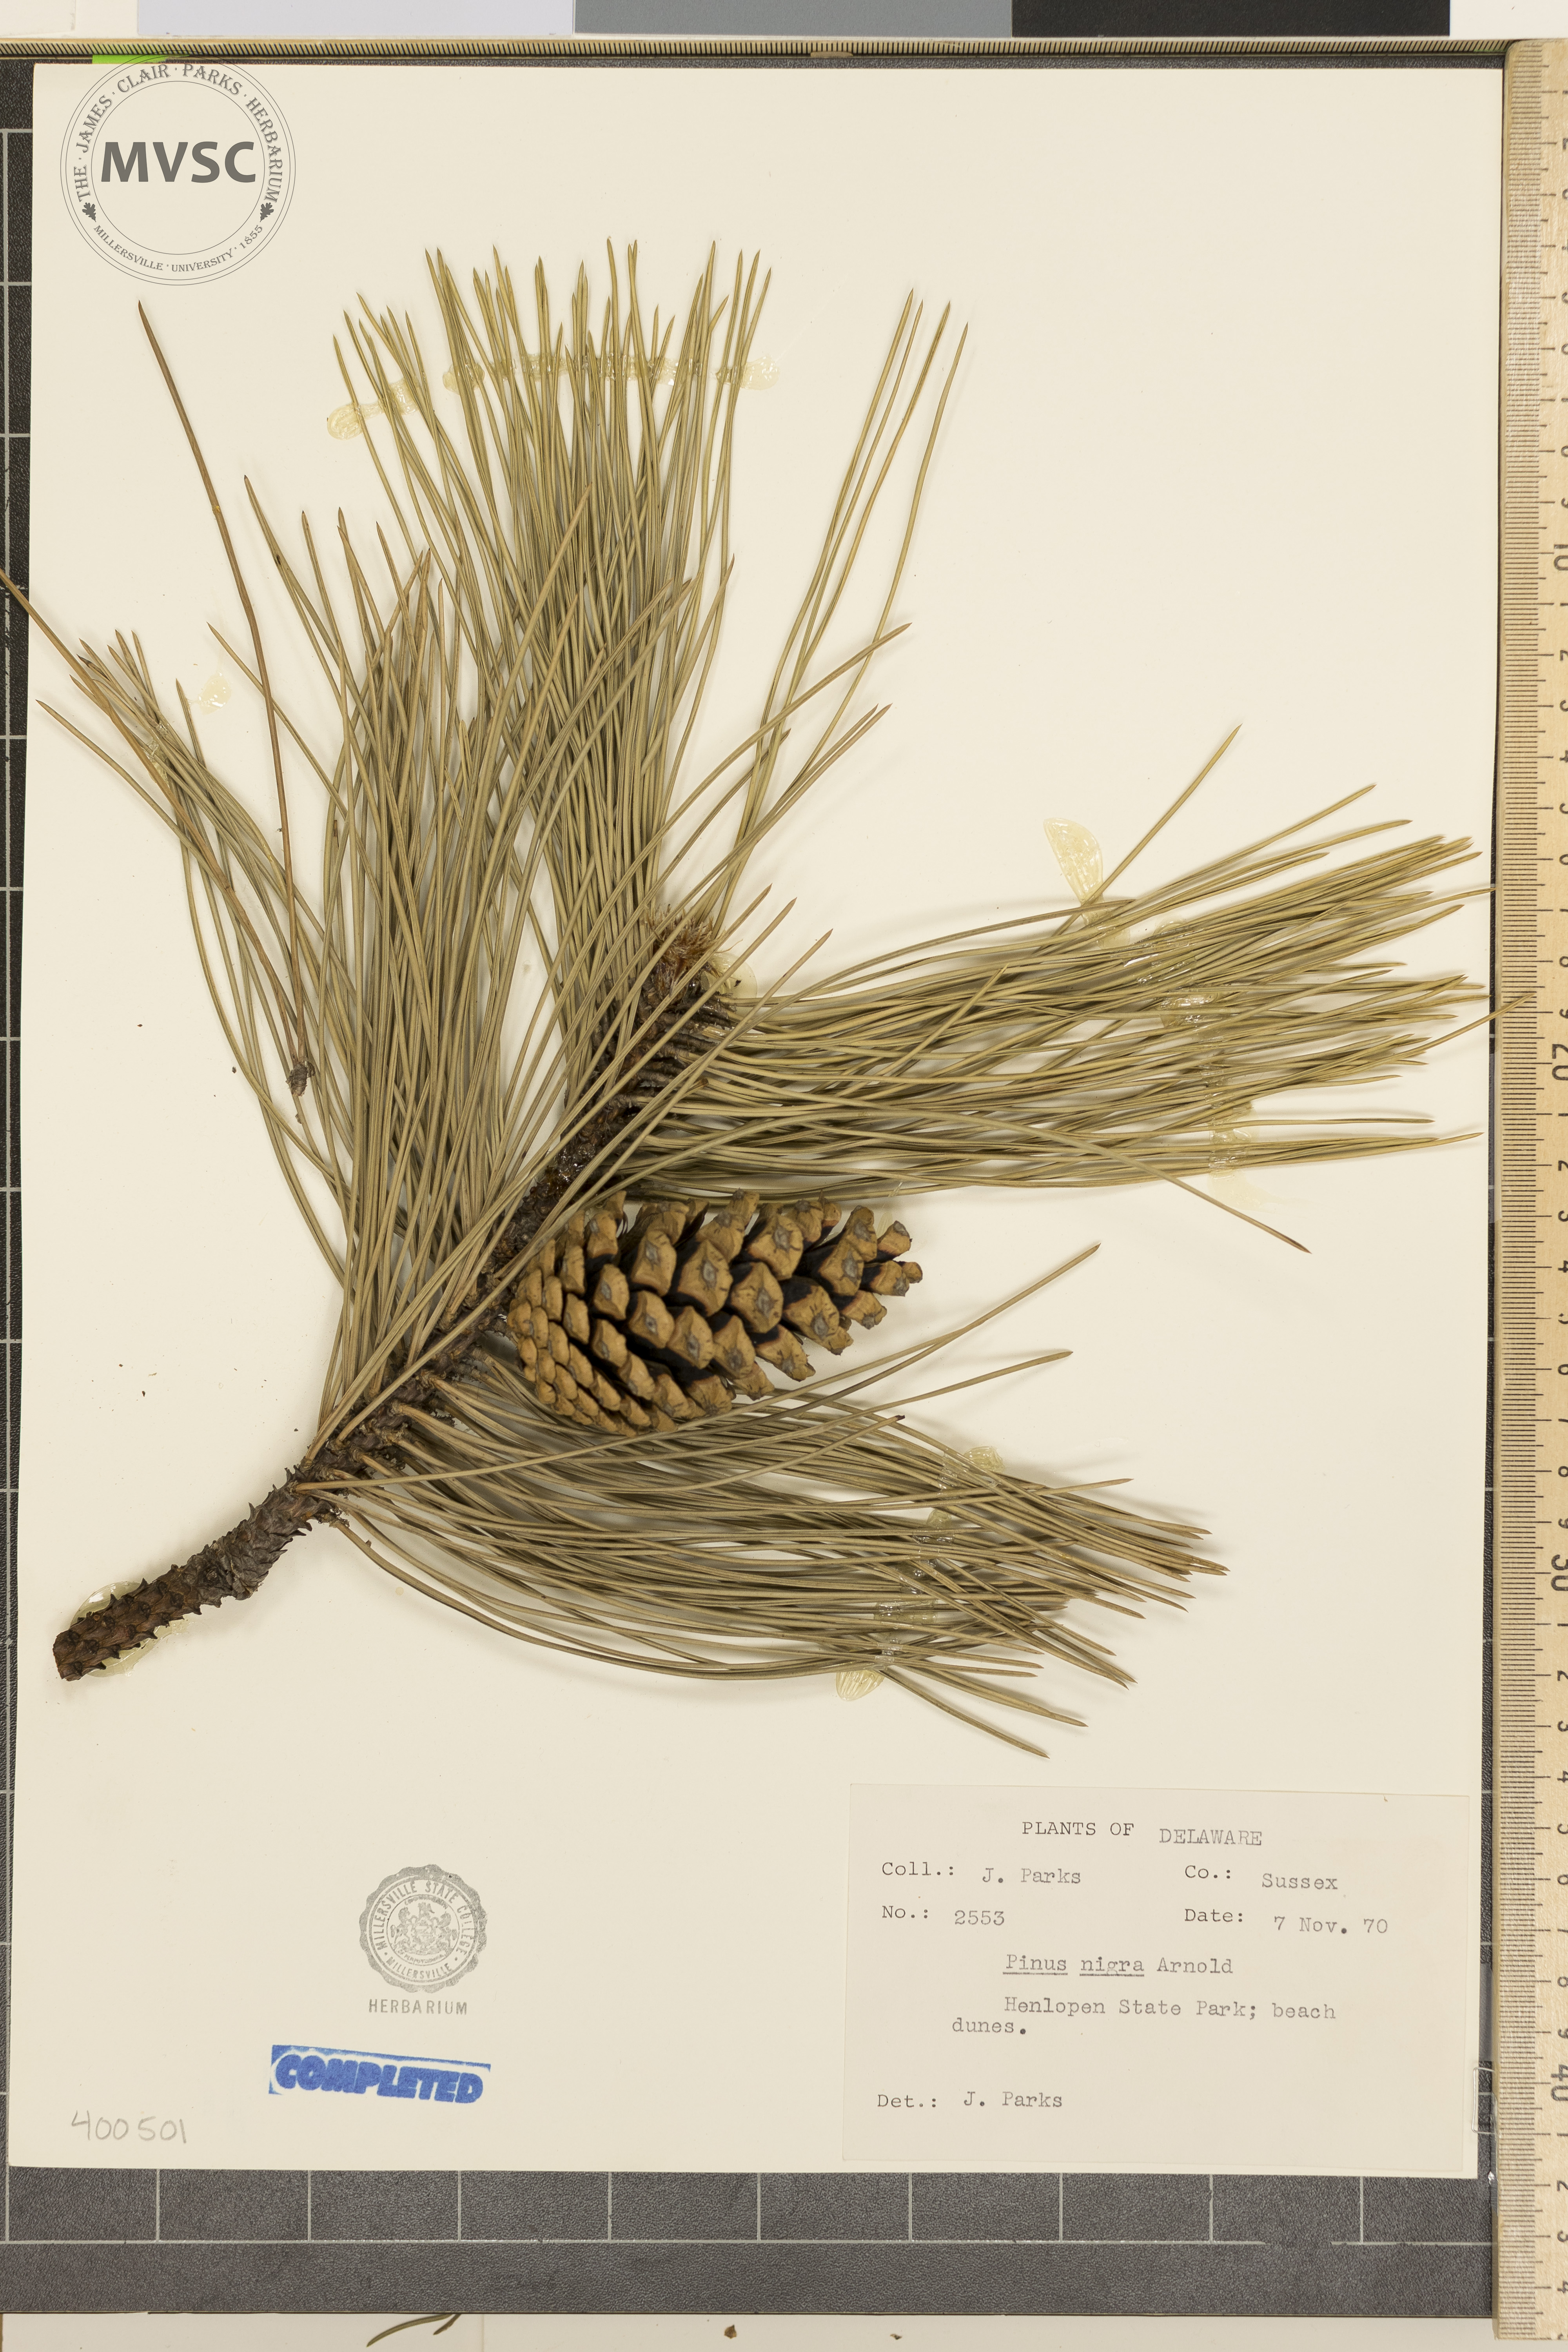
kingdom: Plantae
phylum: Tracheophyta
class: Pinopsida
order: Pinales
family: Pinaceae
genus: Pinus
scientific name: Pinus nigra
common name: Austrian pine
